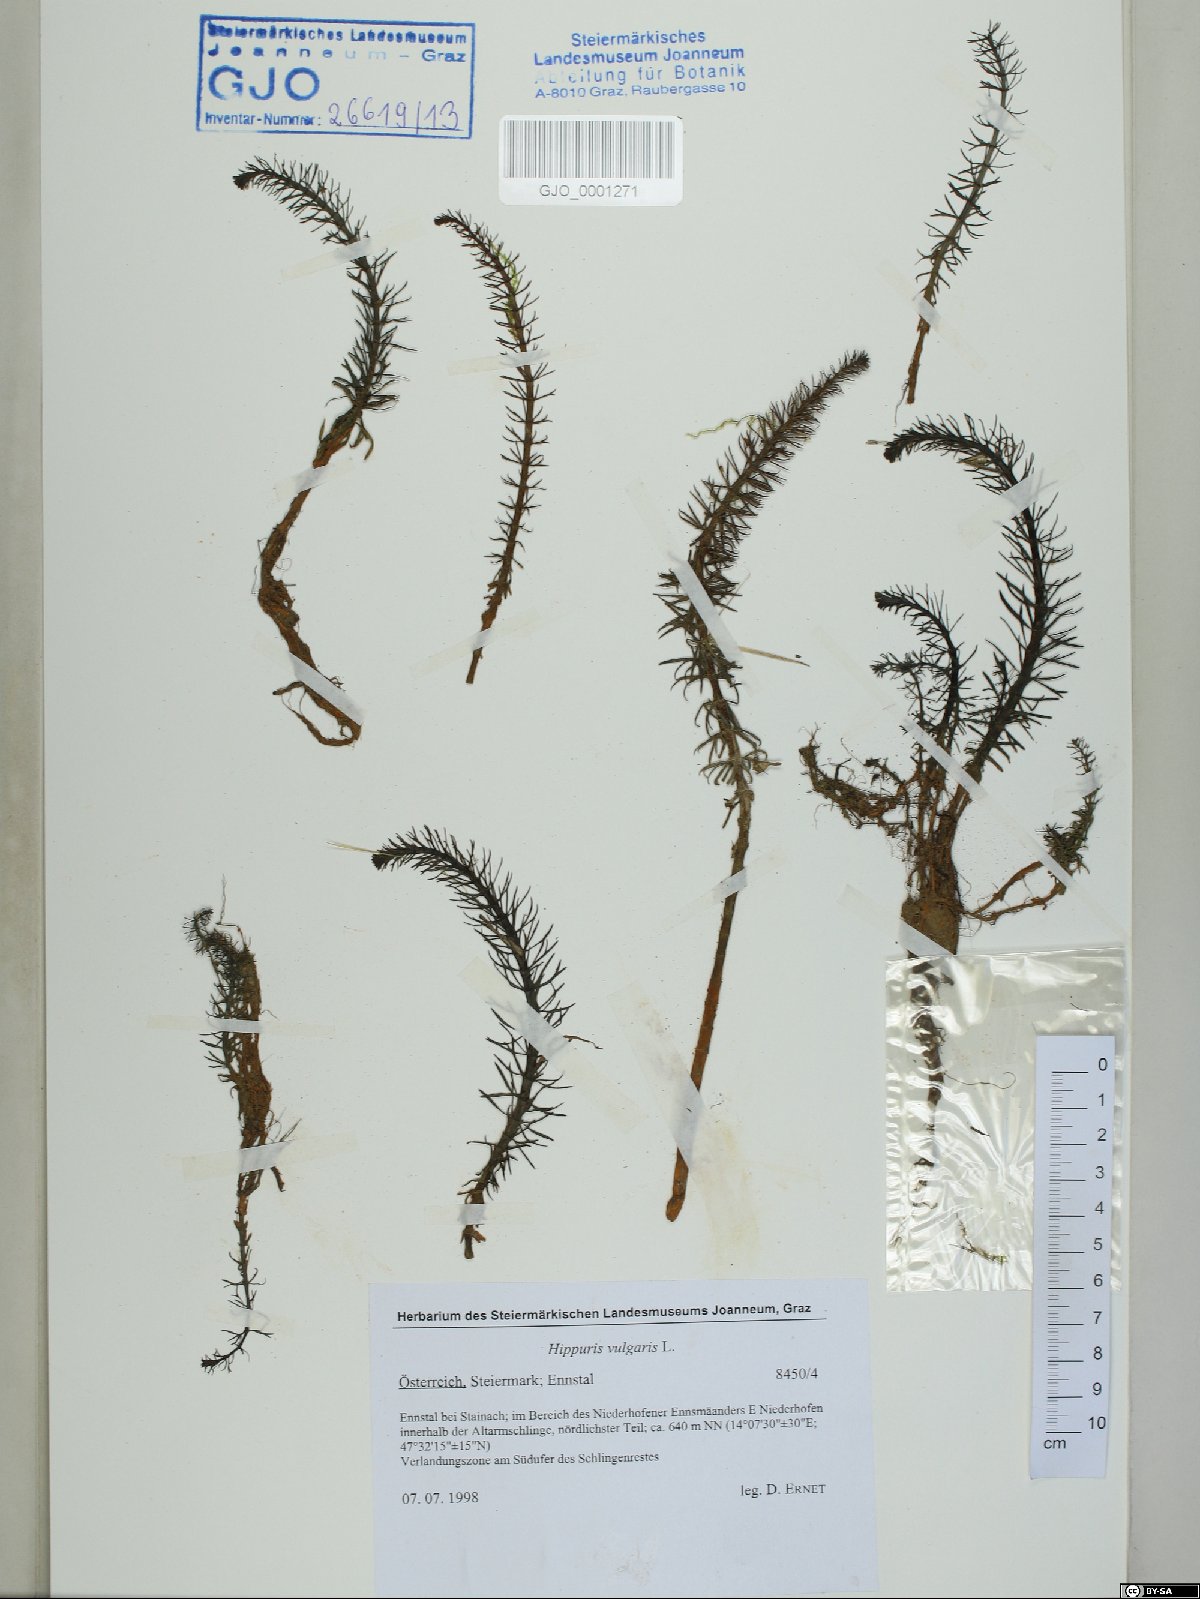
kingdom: Plantae
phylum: Tracheophyta
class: Magnoliopsida
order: Lamiales
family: Plantaginaceae
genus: Hippuris
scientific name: Hippuris vulgaris
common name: Mare's-tail
